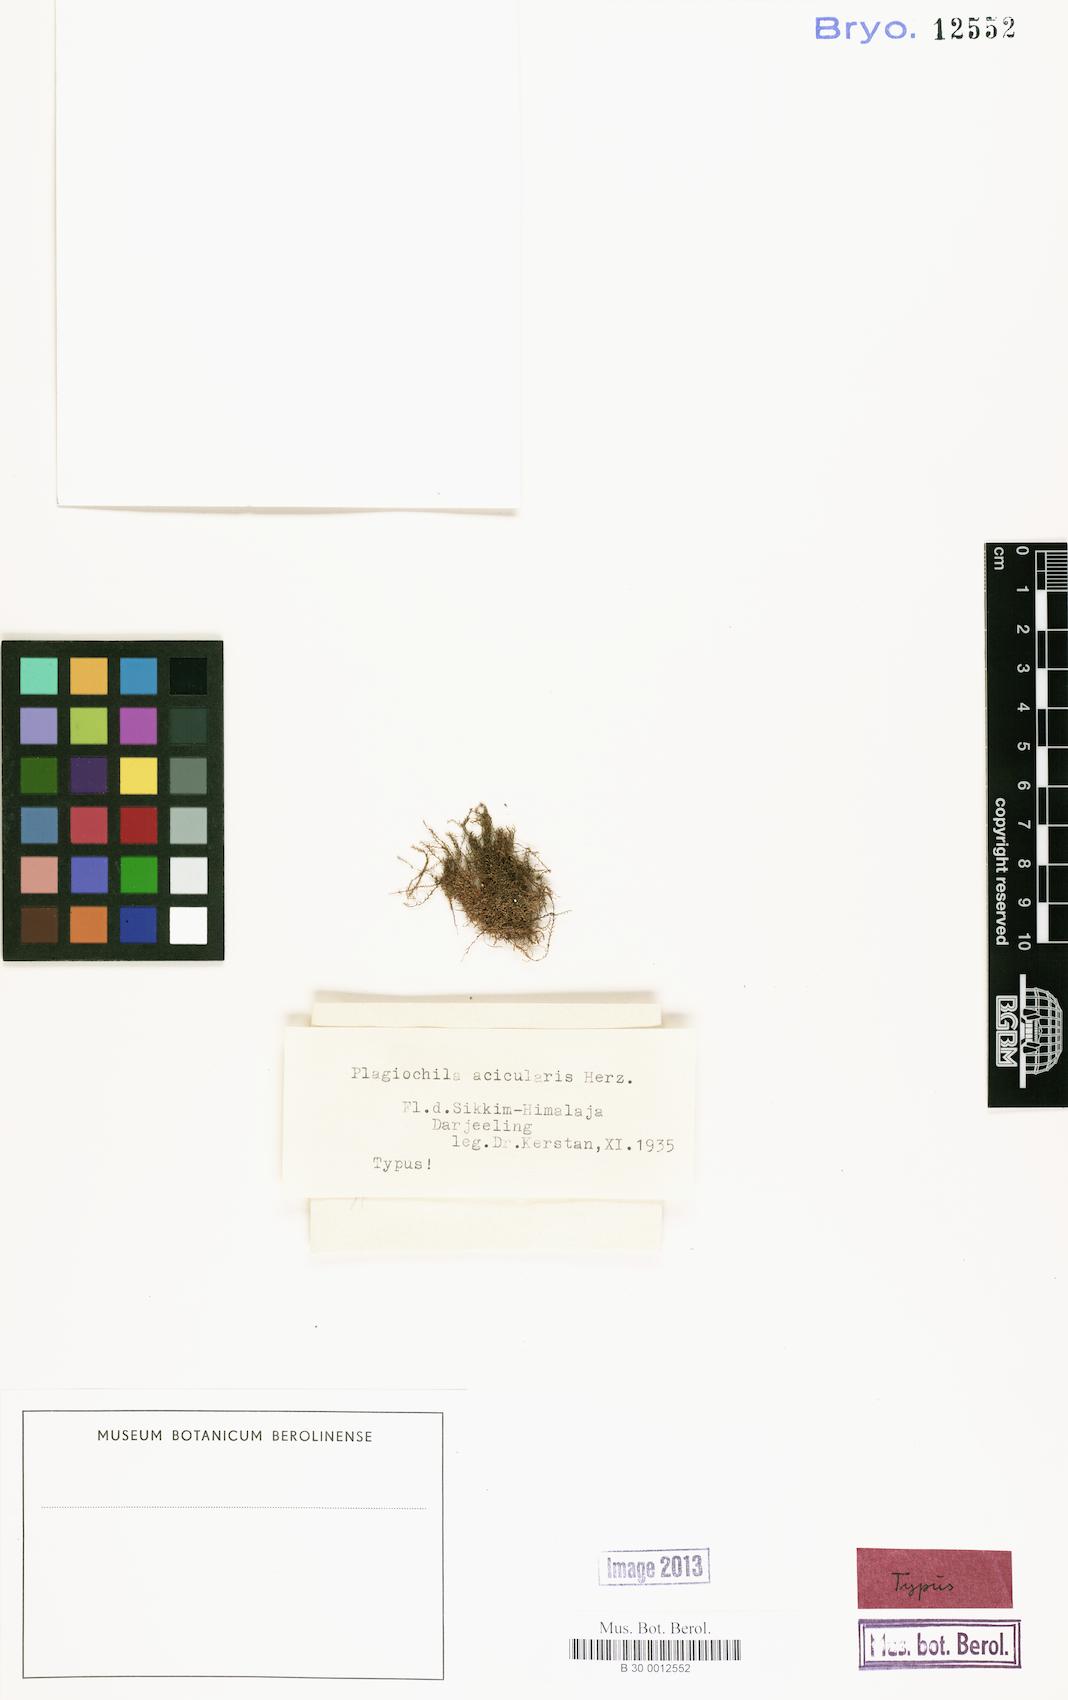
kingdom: Plantae
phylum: Marchantiophyta
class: Jungermanniopsida
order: Jungermanniales
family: Plagiochilaceae
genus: Plagiochila
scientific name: Plagiochila gracilis
